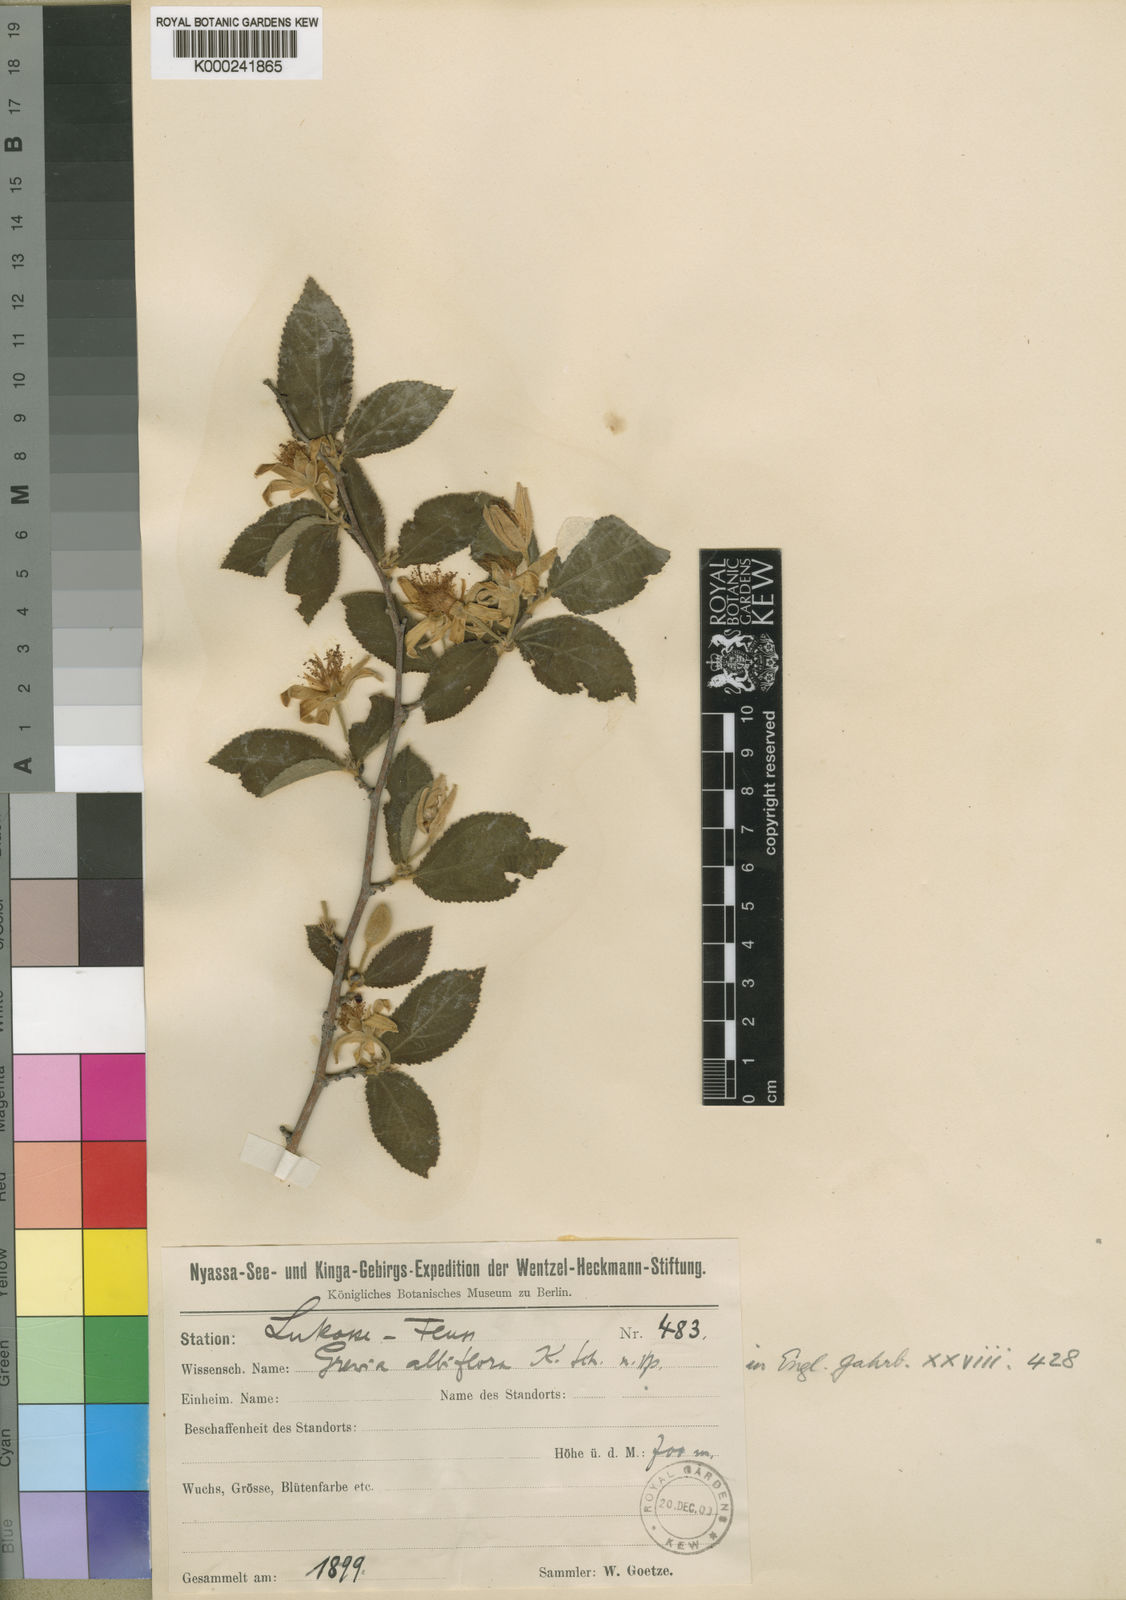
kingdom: Plantae
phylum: Tracheophyta
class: Magnoliopsida
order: Malvales
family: Malvaceae
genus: Grewia
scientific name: Grewia praecox
